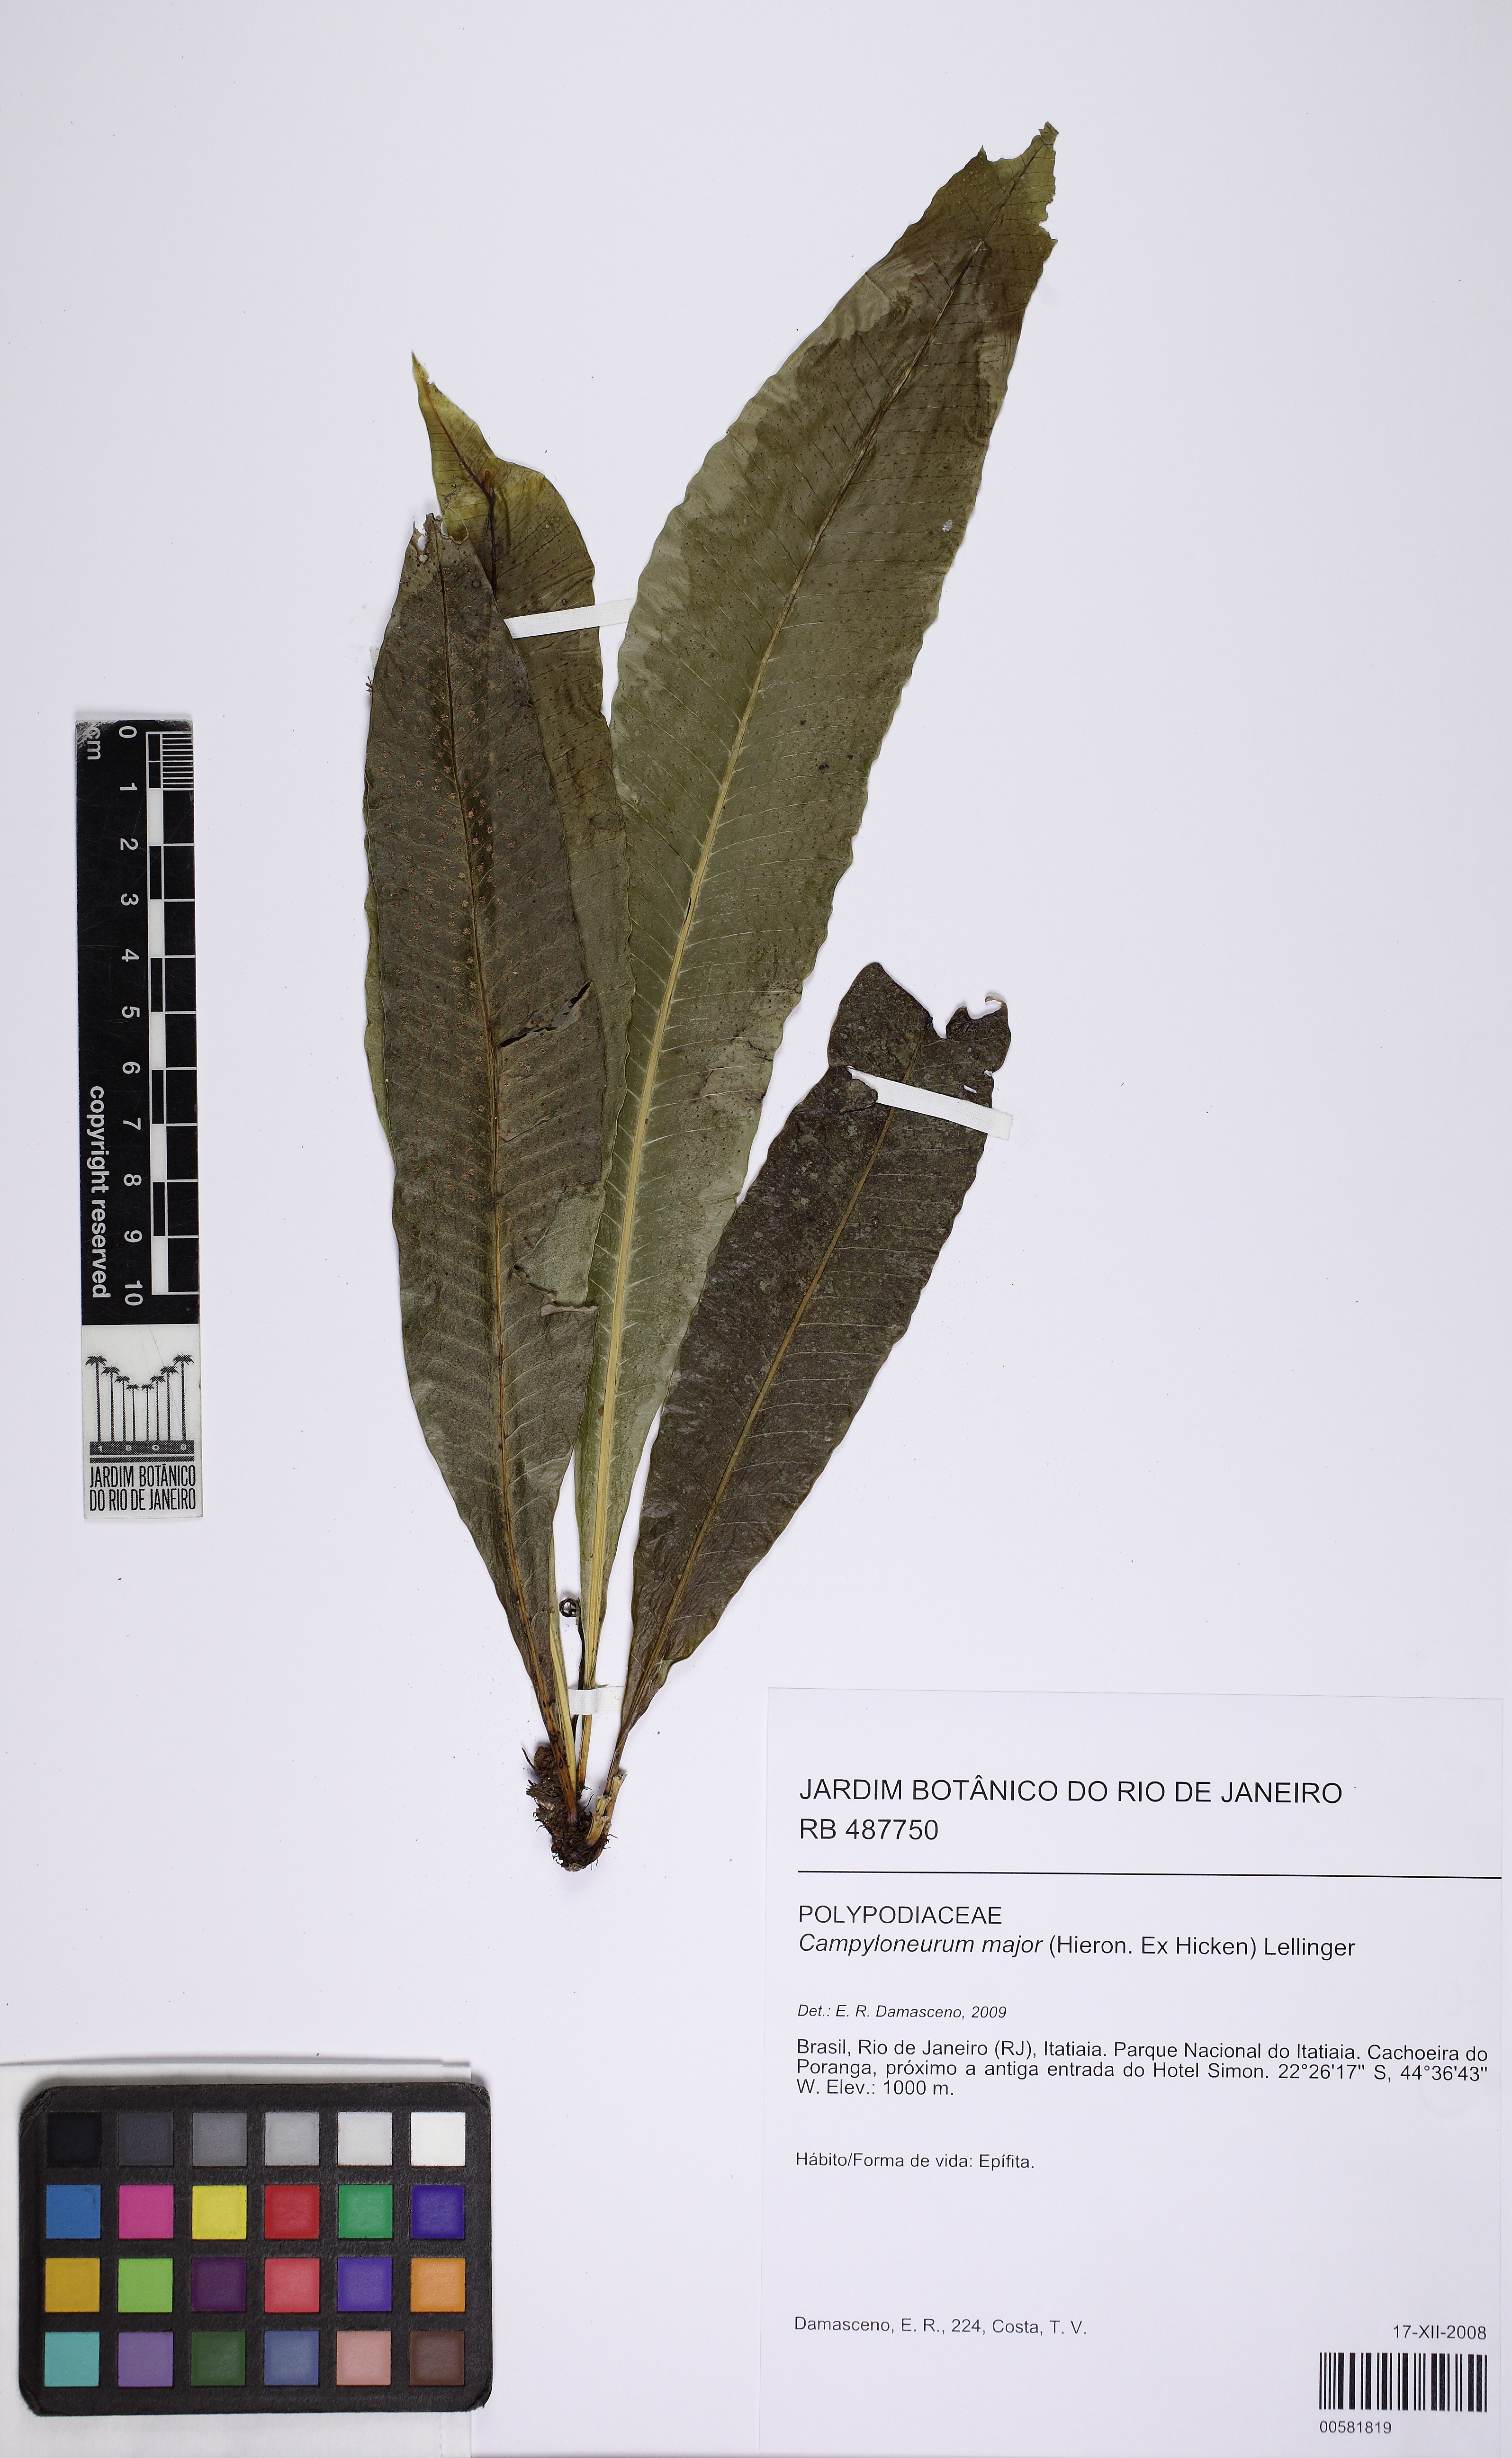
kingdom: Plantae
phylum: Tracheophyta
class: Polypodiopsida
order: Polypodiales
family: Polypodiaceae
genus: Campyloneurum
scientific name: Campyloneurum nitidum
